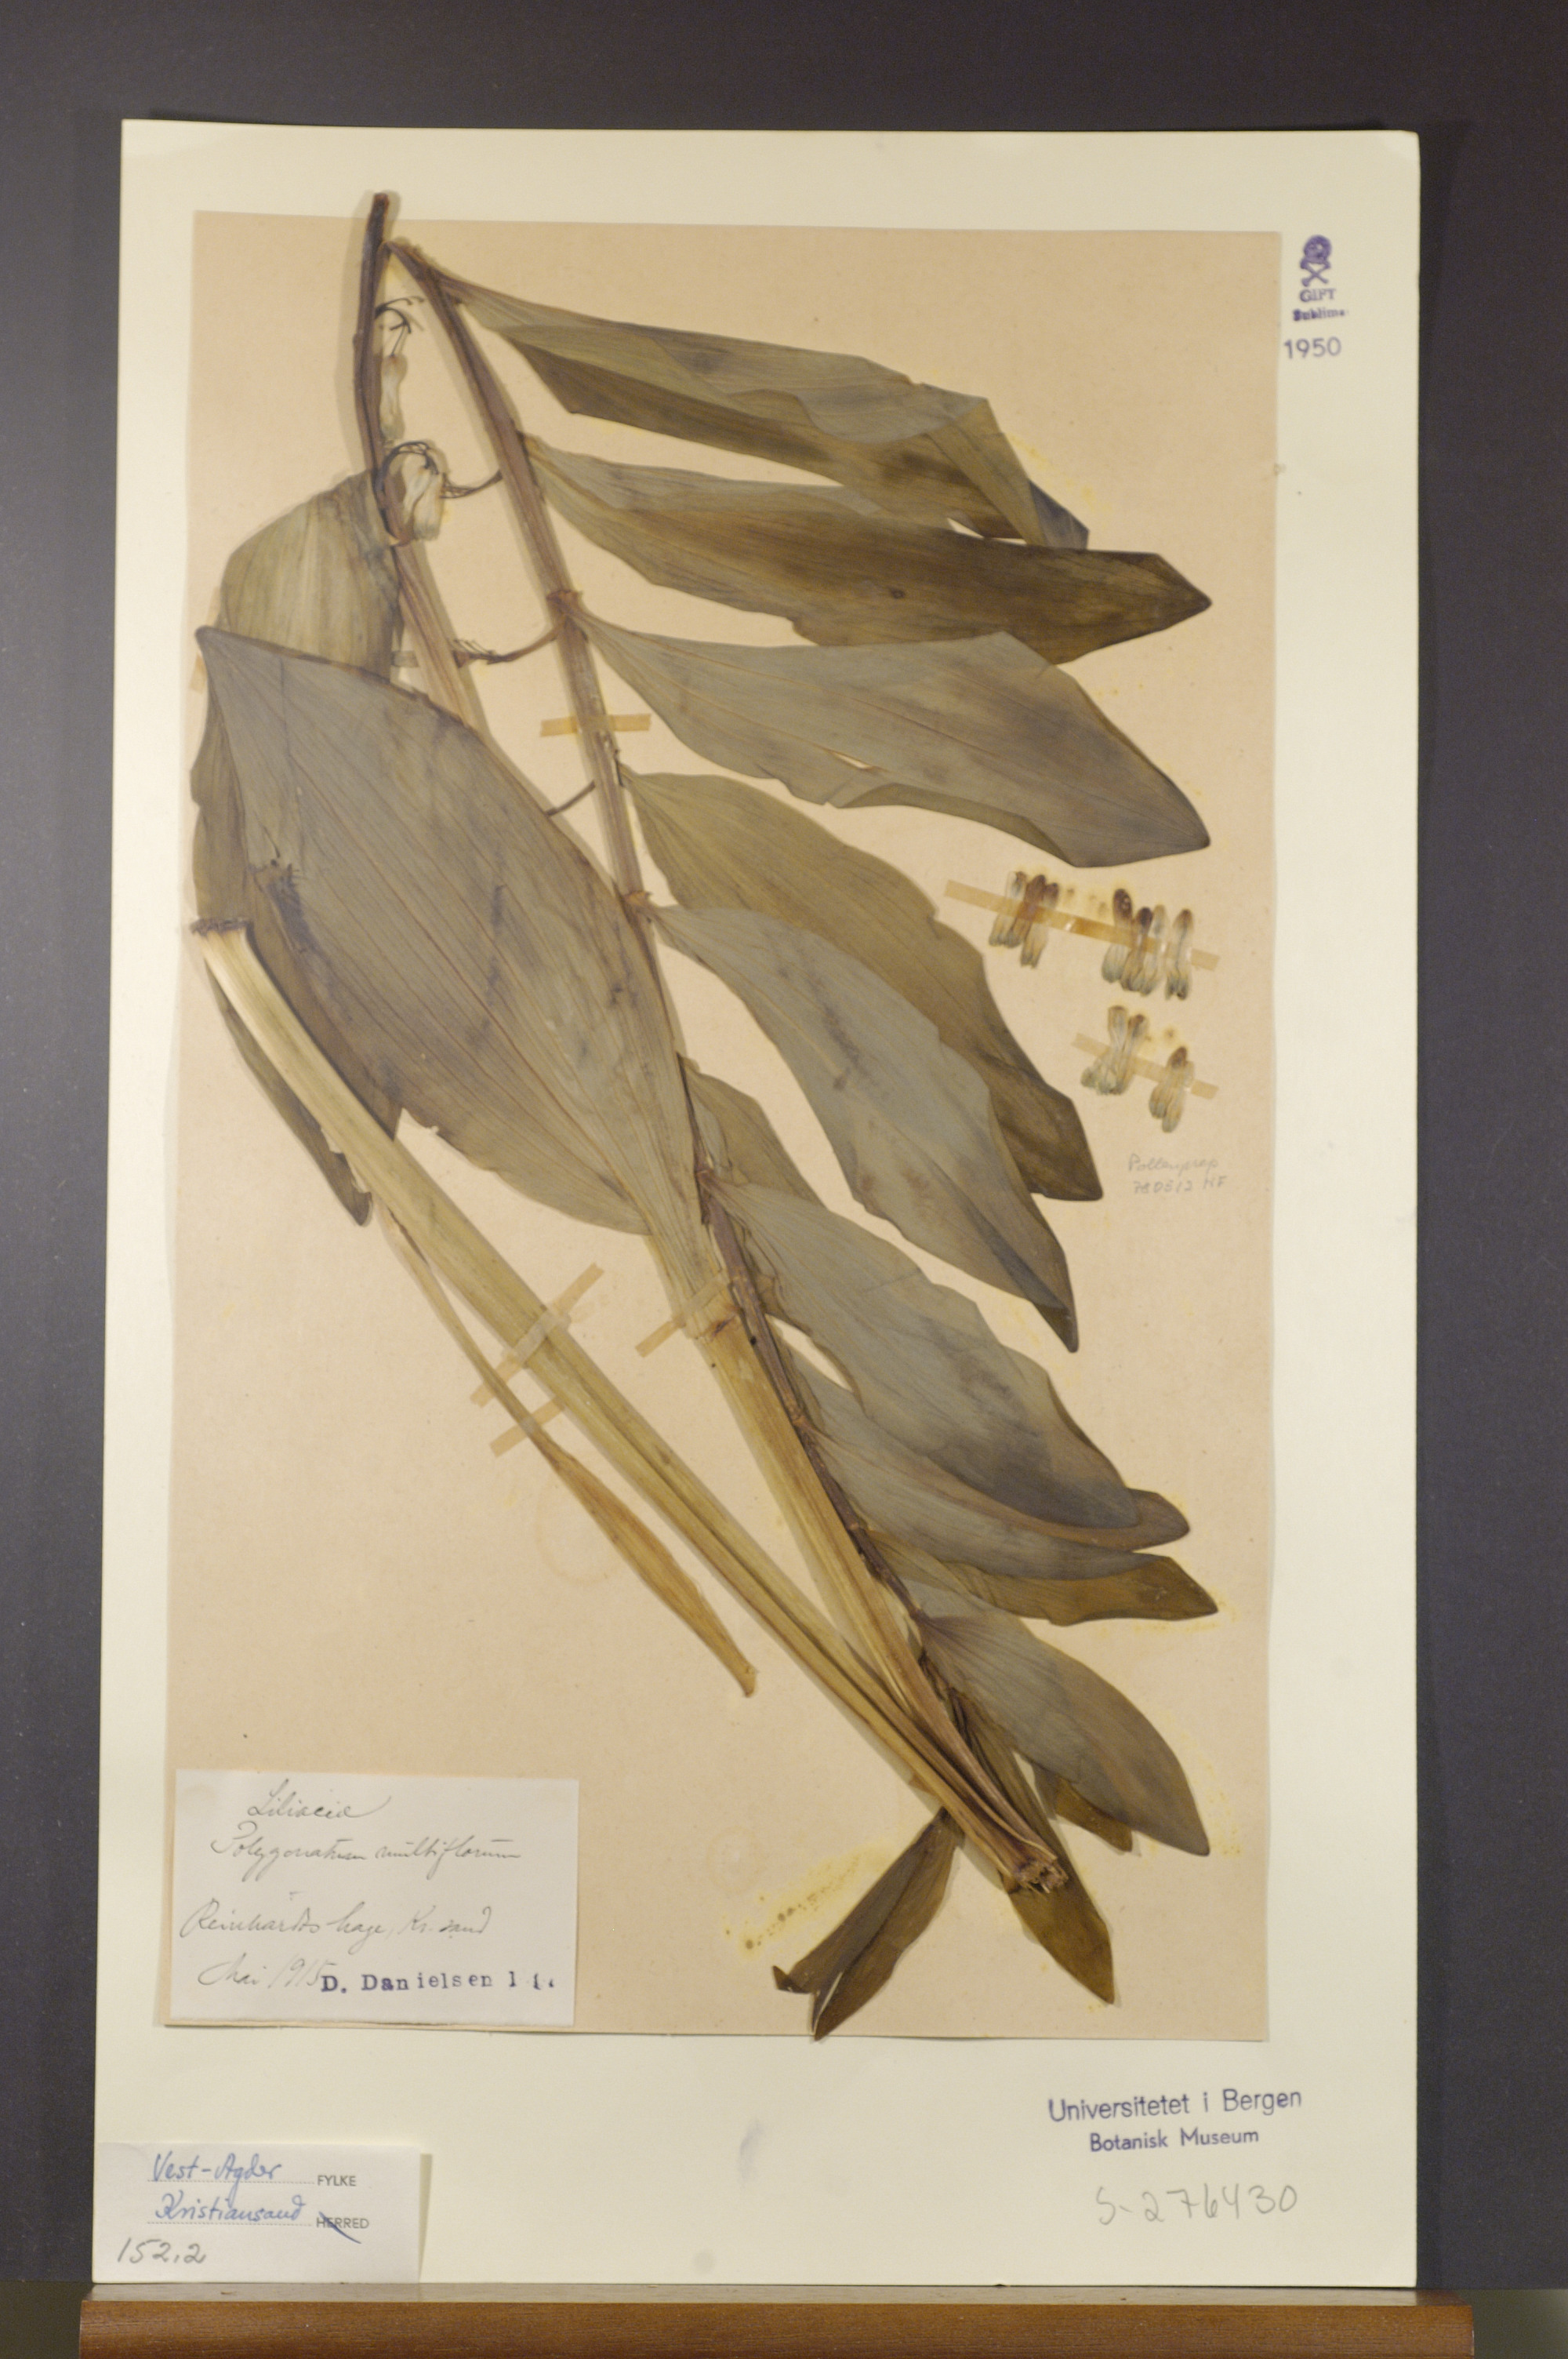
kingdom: Plantae
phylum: Tracheophyta
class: Liliopsida
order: Asparagales
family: Asparagaceae
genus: Polygonatum
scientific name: Polygonatum multiflorum
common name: Solomon's-seal
